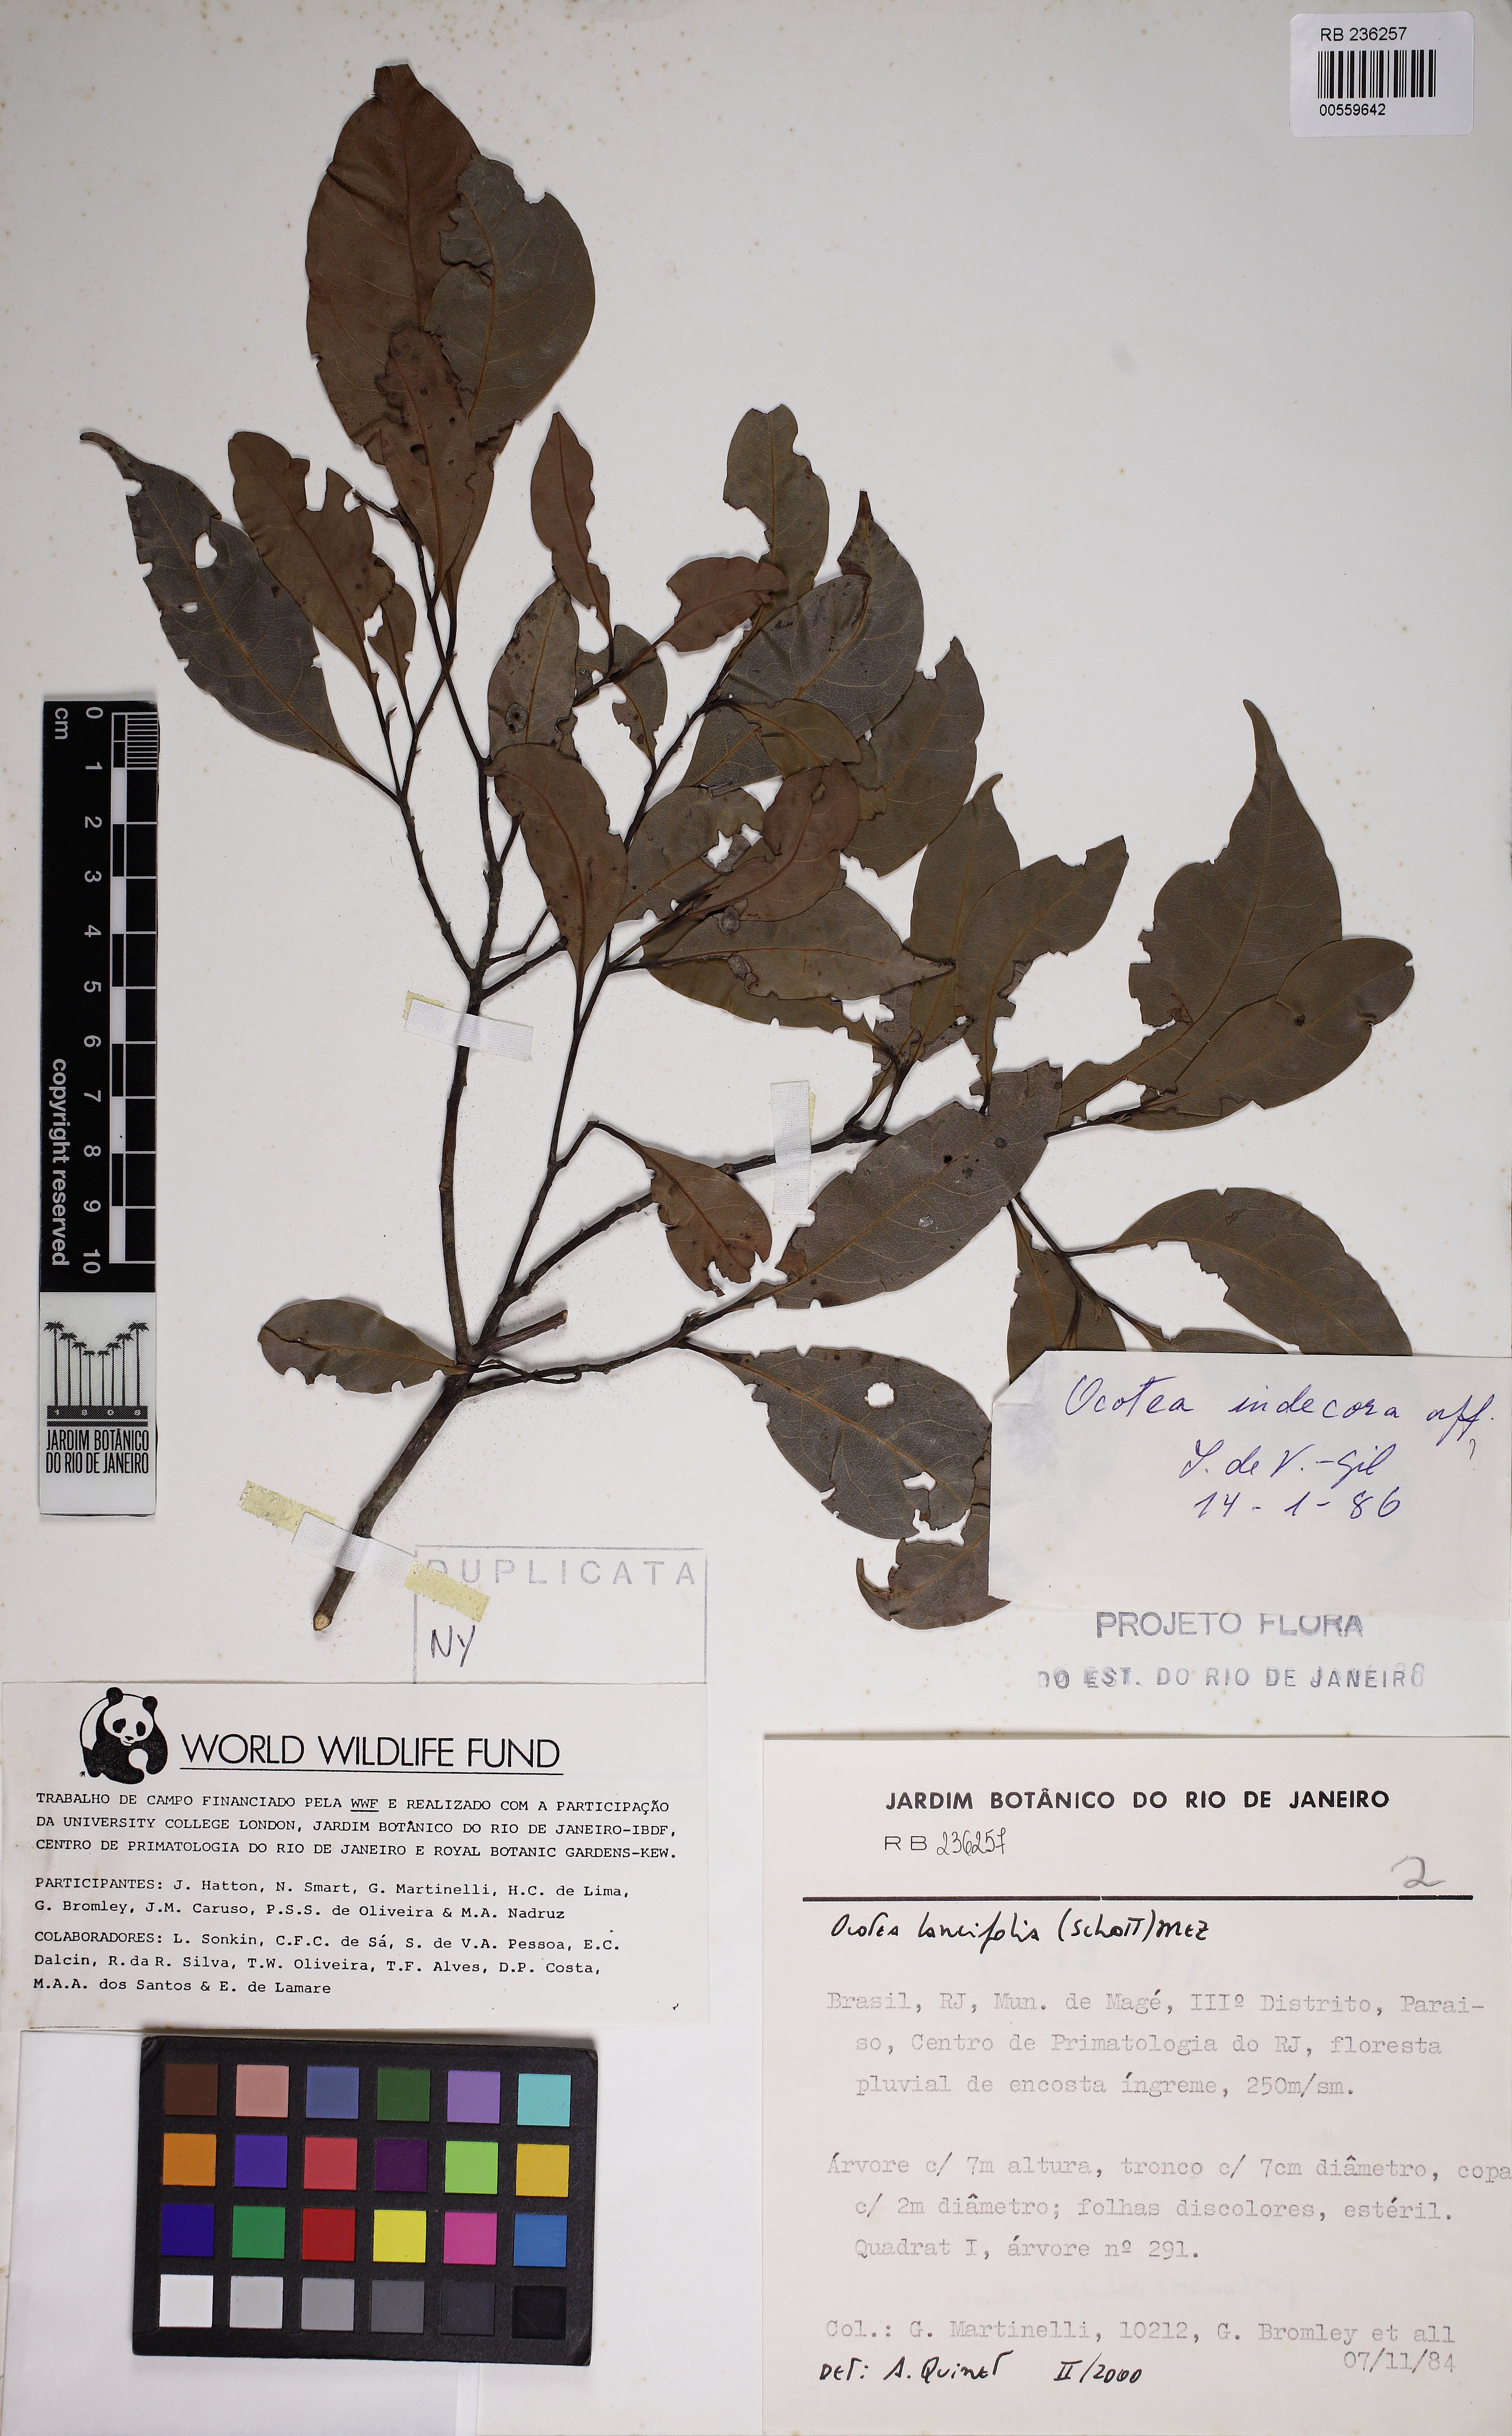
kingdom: Plantae
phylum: Tracheophyta
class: Magnoliopsida
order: Laurales
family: Lauraceae
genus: Ocotea
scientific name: Ocotea lancifolia
